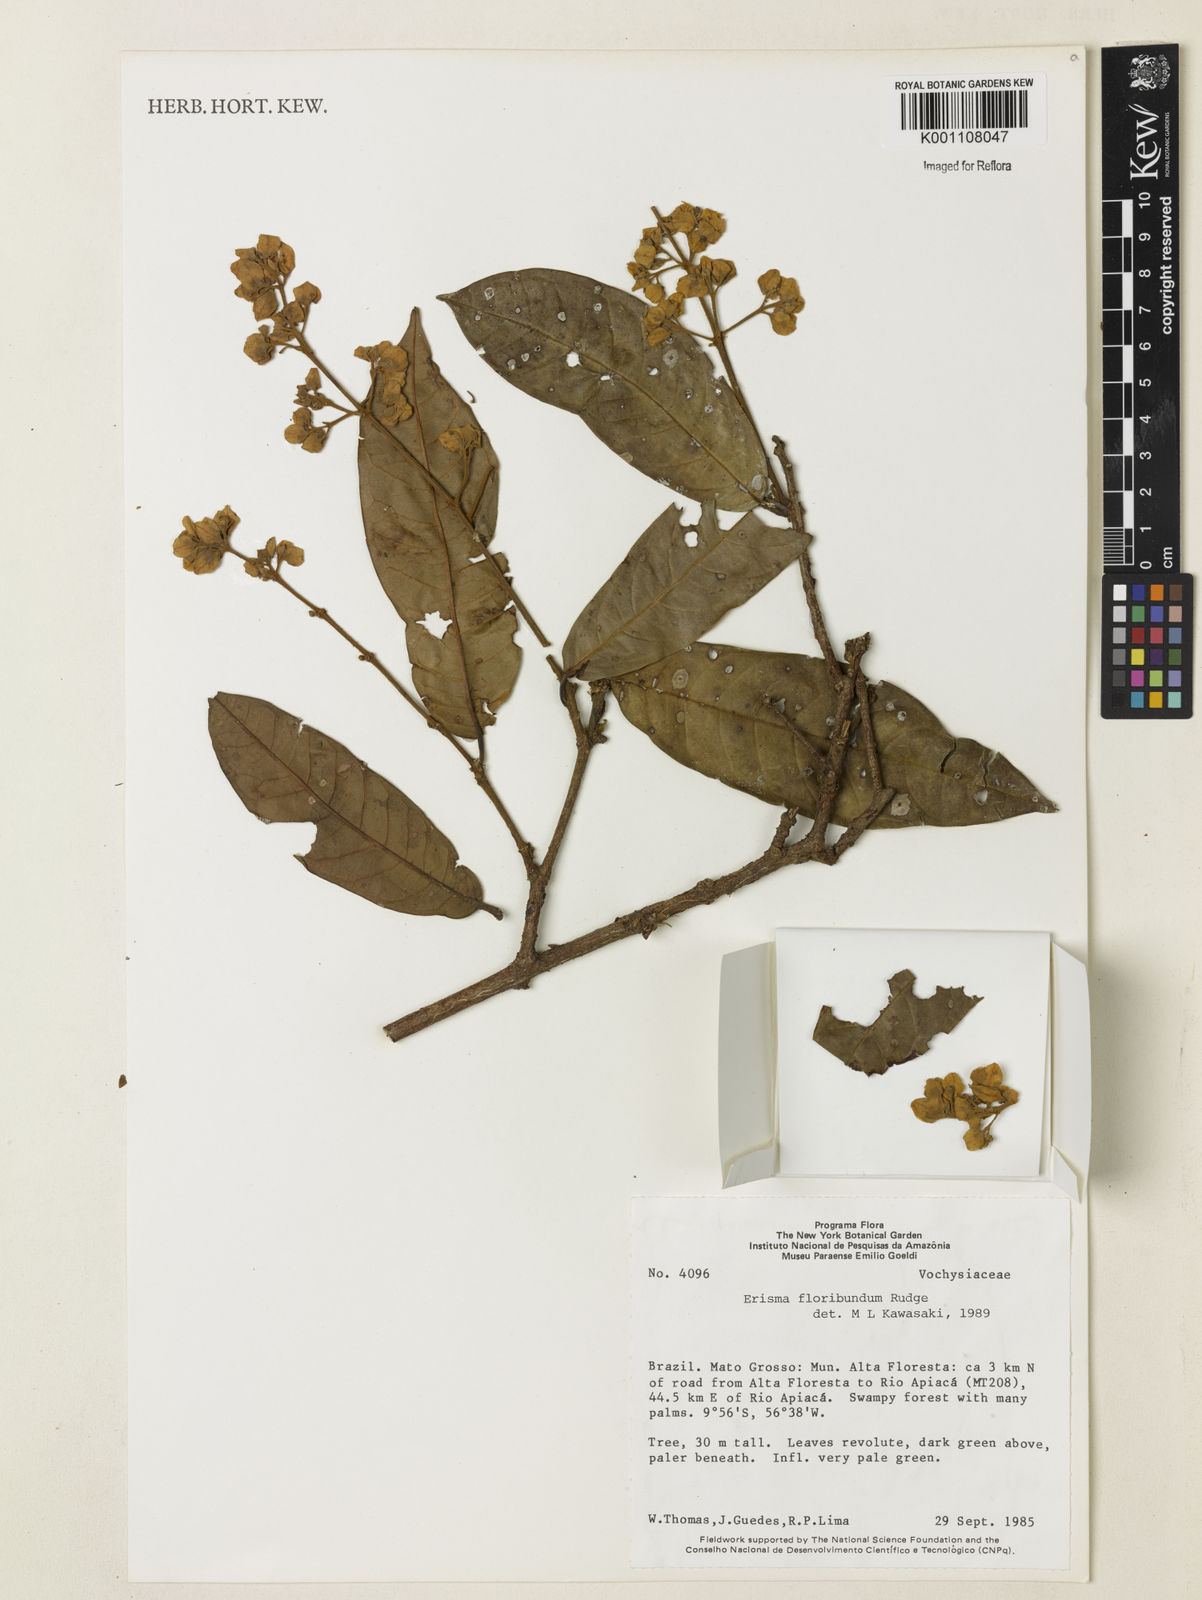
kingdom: Plantae
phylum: Tracheophyta
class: Magnoliopsida
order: Myrtales
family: Vochysiaceae
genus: Erisma
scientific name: Erisma
